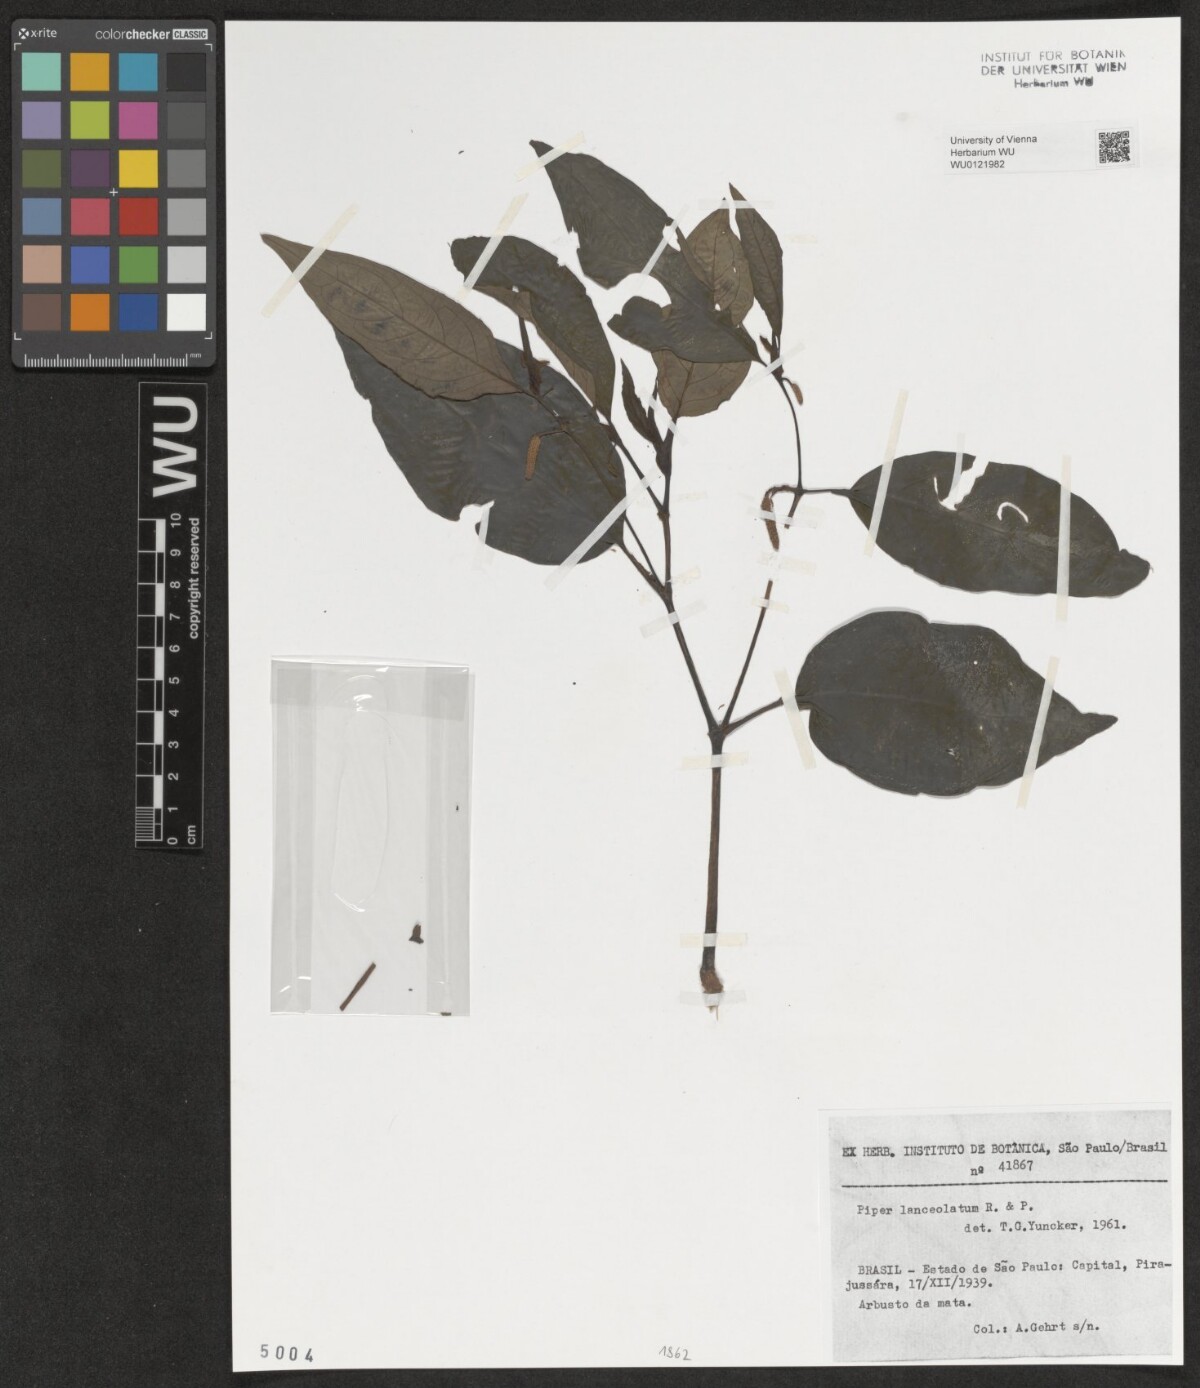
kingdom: Plantae
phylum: Tracheophyta
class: Magnoliopsida
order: Piperales
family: Piperaceae
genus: Piper
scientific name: Piper lanceolatum
